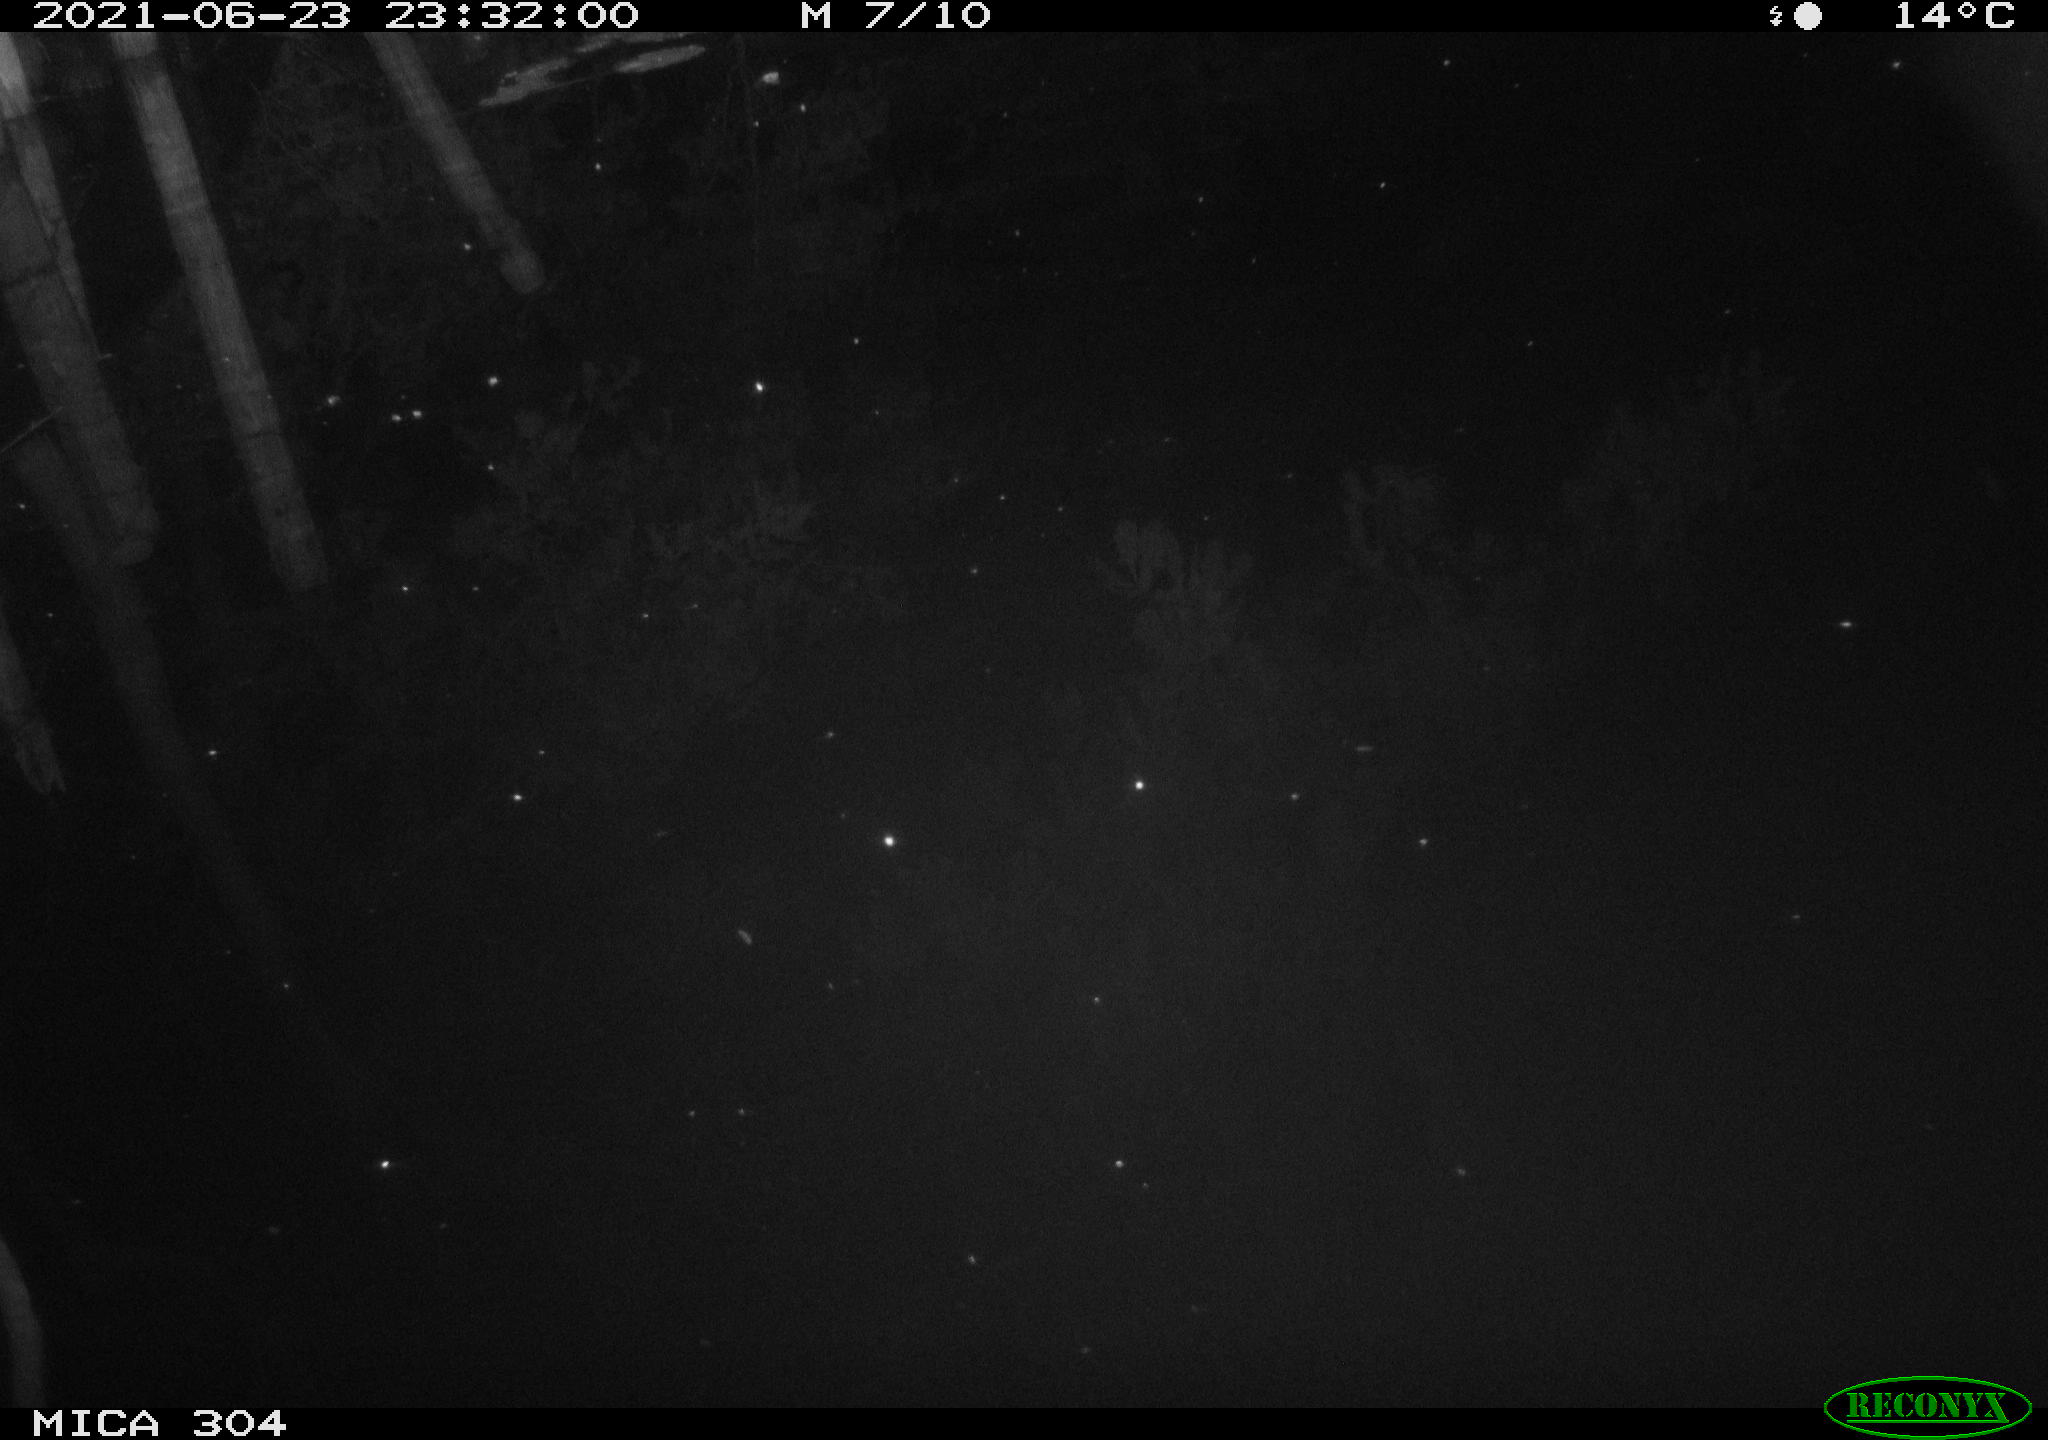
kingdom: Animalia
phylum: Chordata
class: Aves
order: Anseriformes
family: Anatidae
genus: Anas
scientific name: Anas platyrhynchos
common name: Mallard
